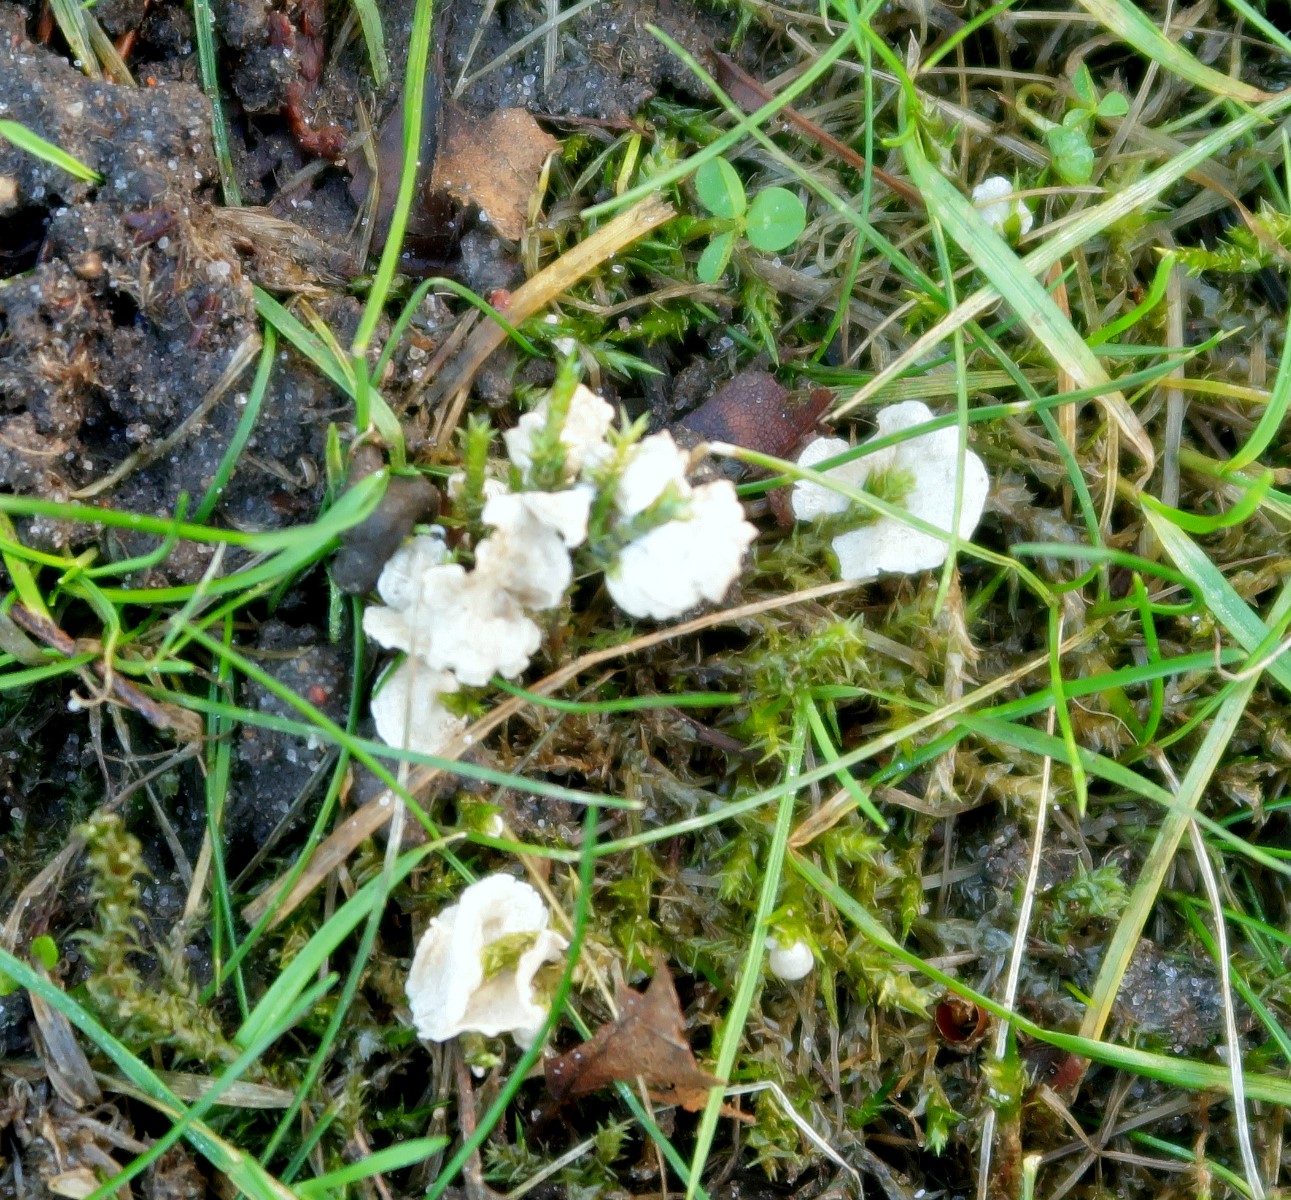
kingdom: Fungi
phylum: Basidiomycota
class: Agaricomycetes
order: Agaricales
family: Hygrophoraceae
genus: Arrhenia
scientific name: Arrhenia retiruga
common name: lille fontænehat
